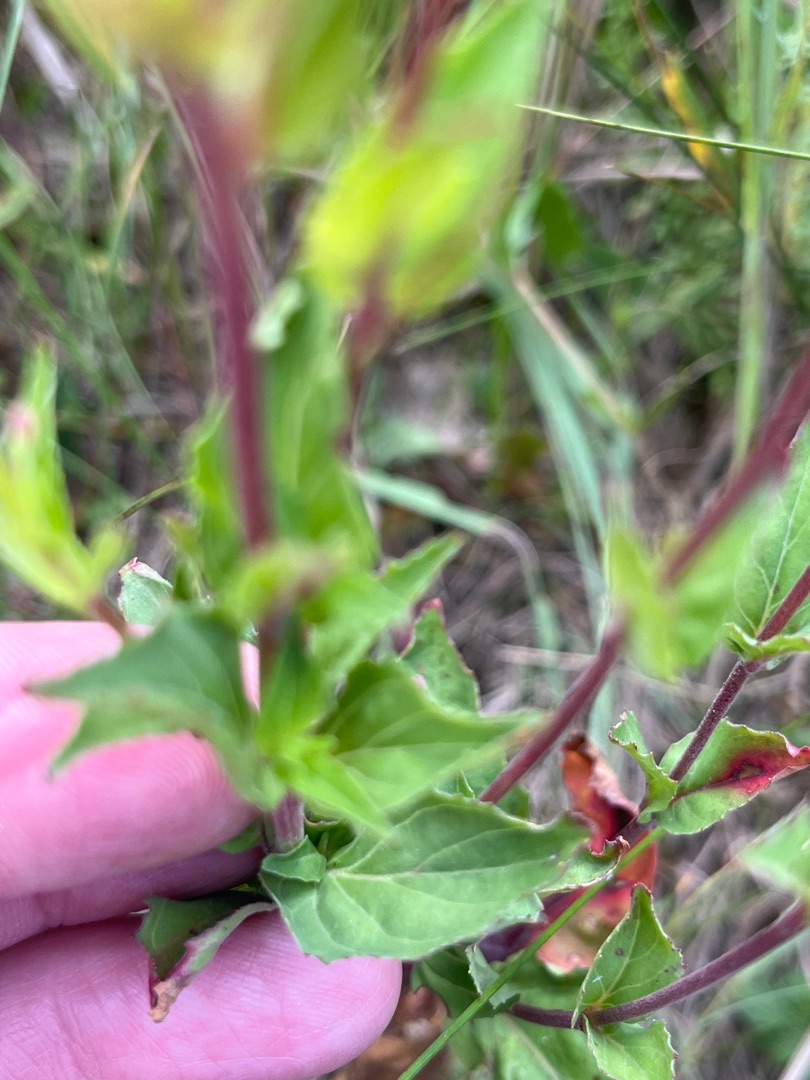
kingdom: Plantae
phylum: Tracheophyta
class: Magnoliopsida
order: Myrtales
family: Onagraceae
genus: Epilobium
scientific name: Epilobium montanum
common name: Glat dueurt
